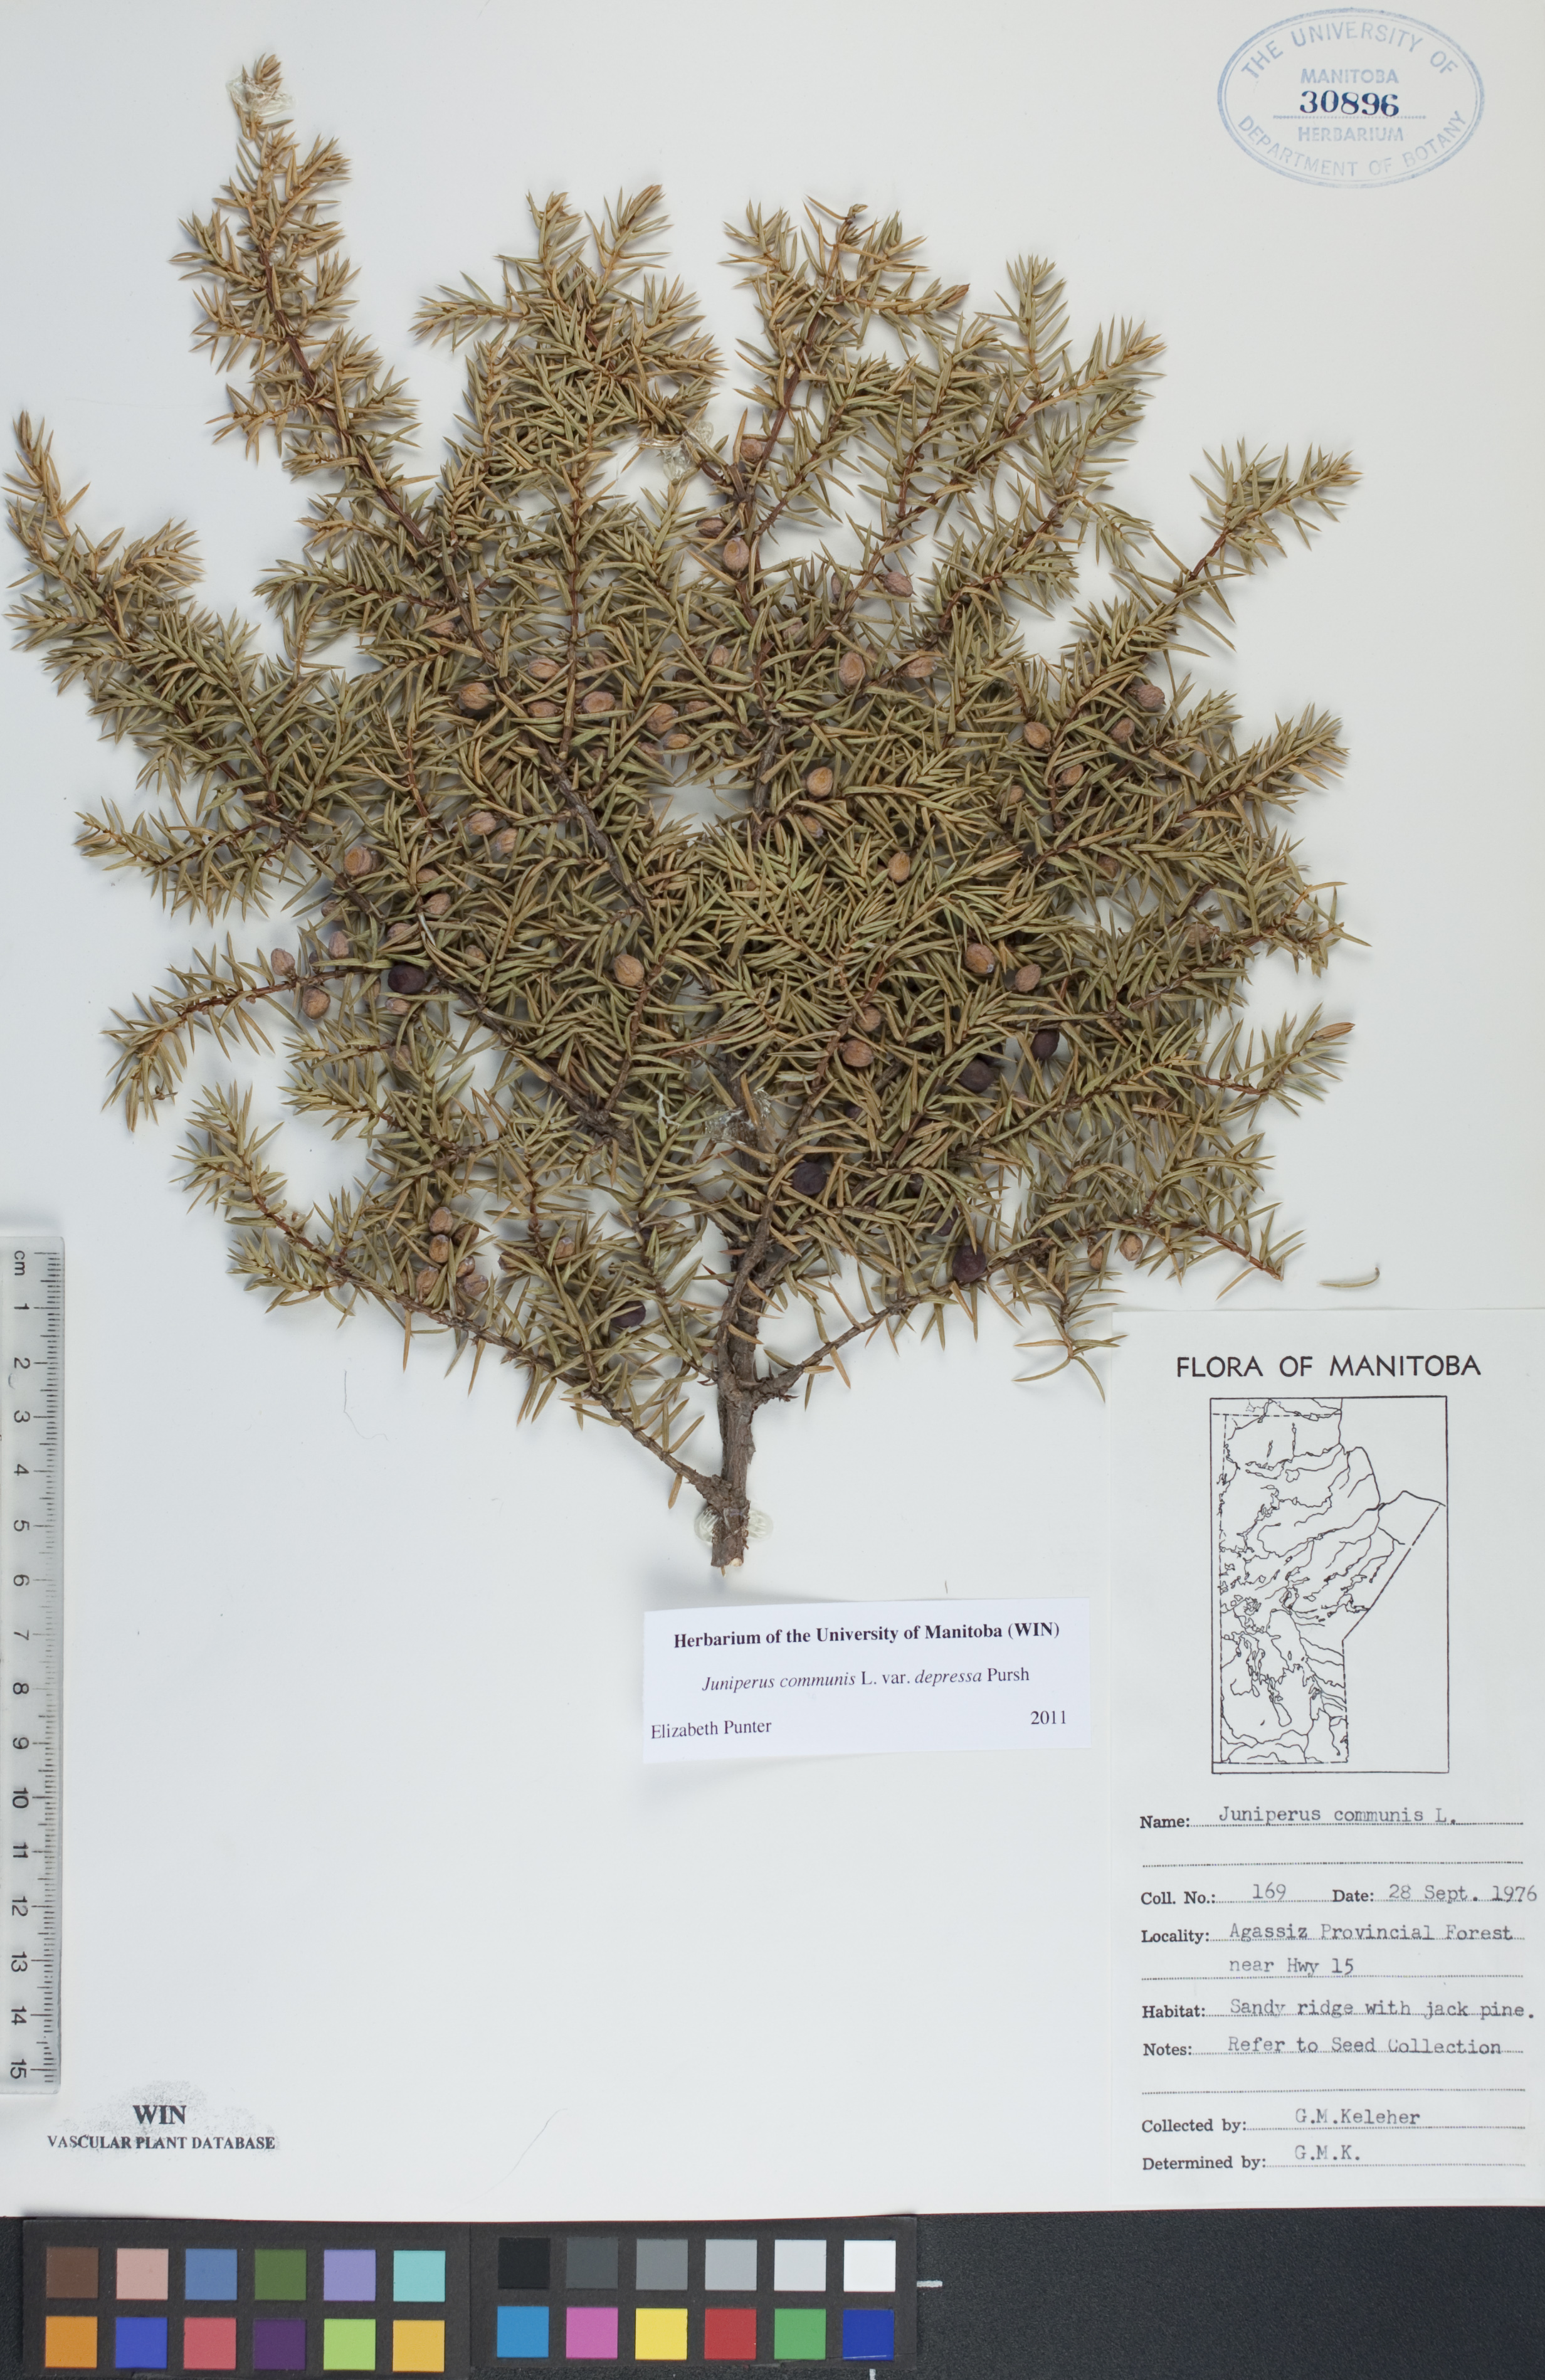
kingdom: Plantae
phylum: Tracheophyta
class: Pinopsida
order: Pinales
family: Cupressaceae
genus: Juniperus
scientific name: Juniperus communis
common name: Common juniper
